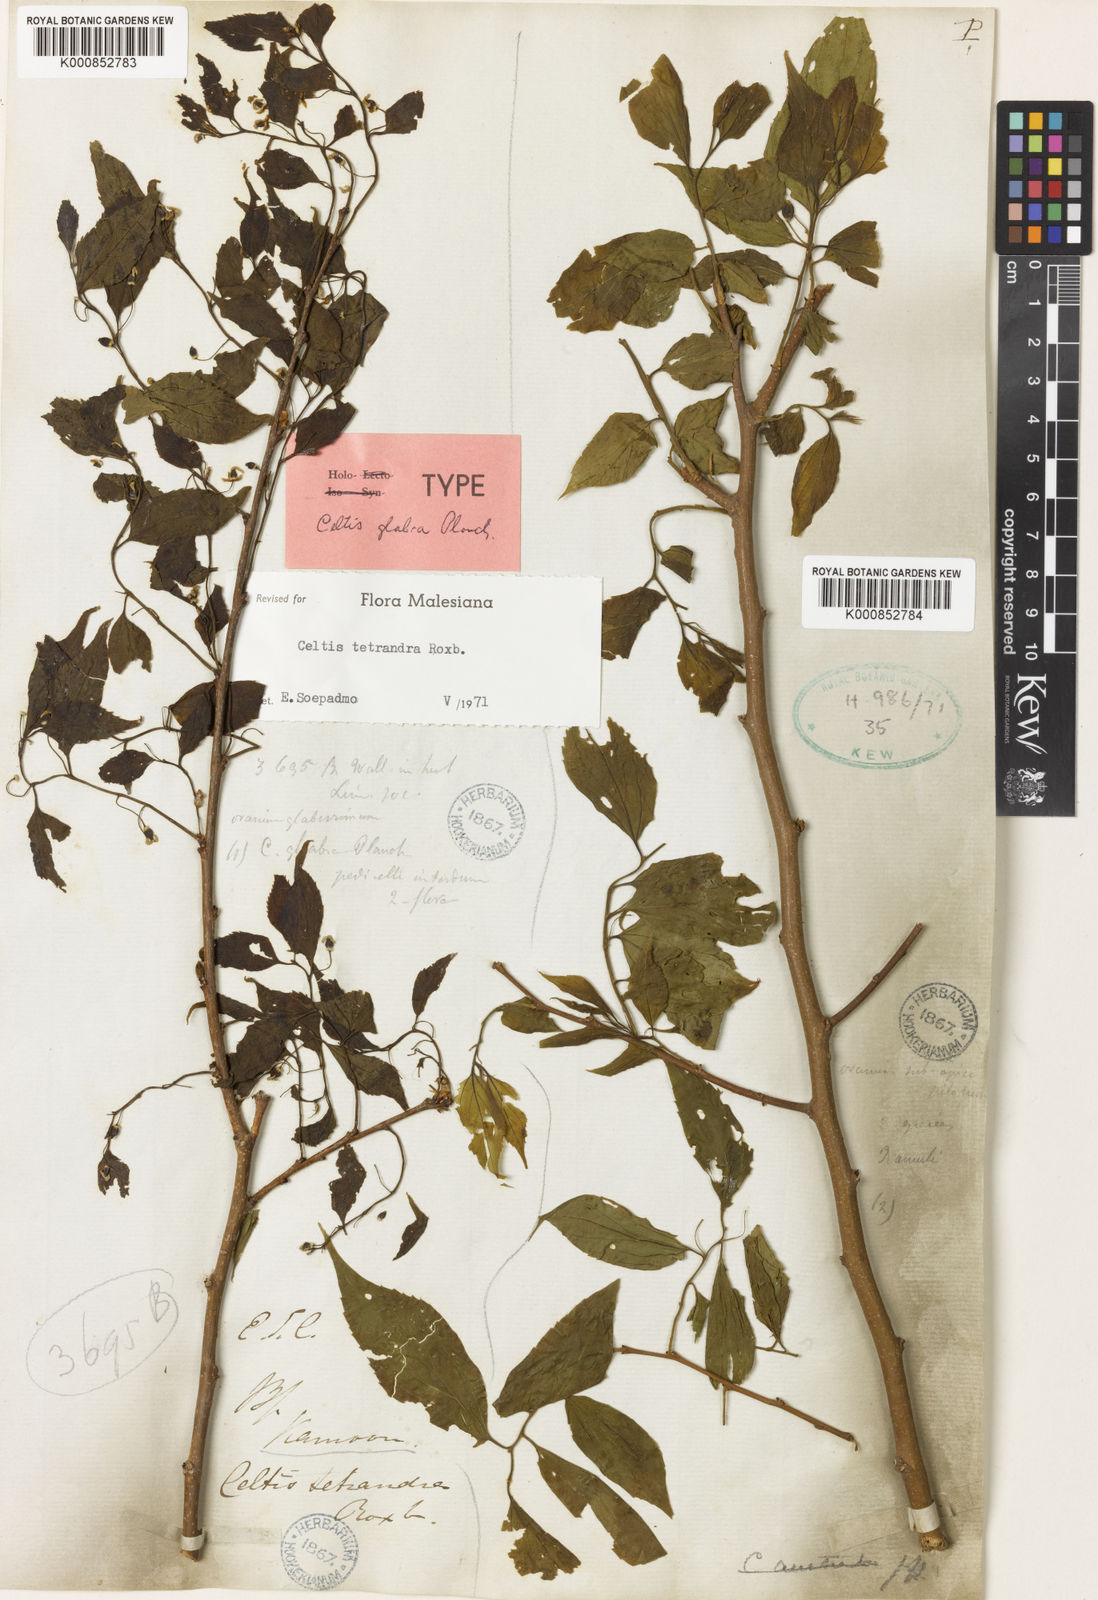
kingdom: Plantae
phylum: Tracheophyta
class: Magnoliopsida
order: Rosales
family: Cannabaceae
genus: Celtis
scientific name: Celtis tetrandra
